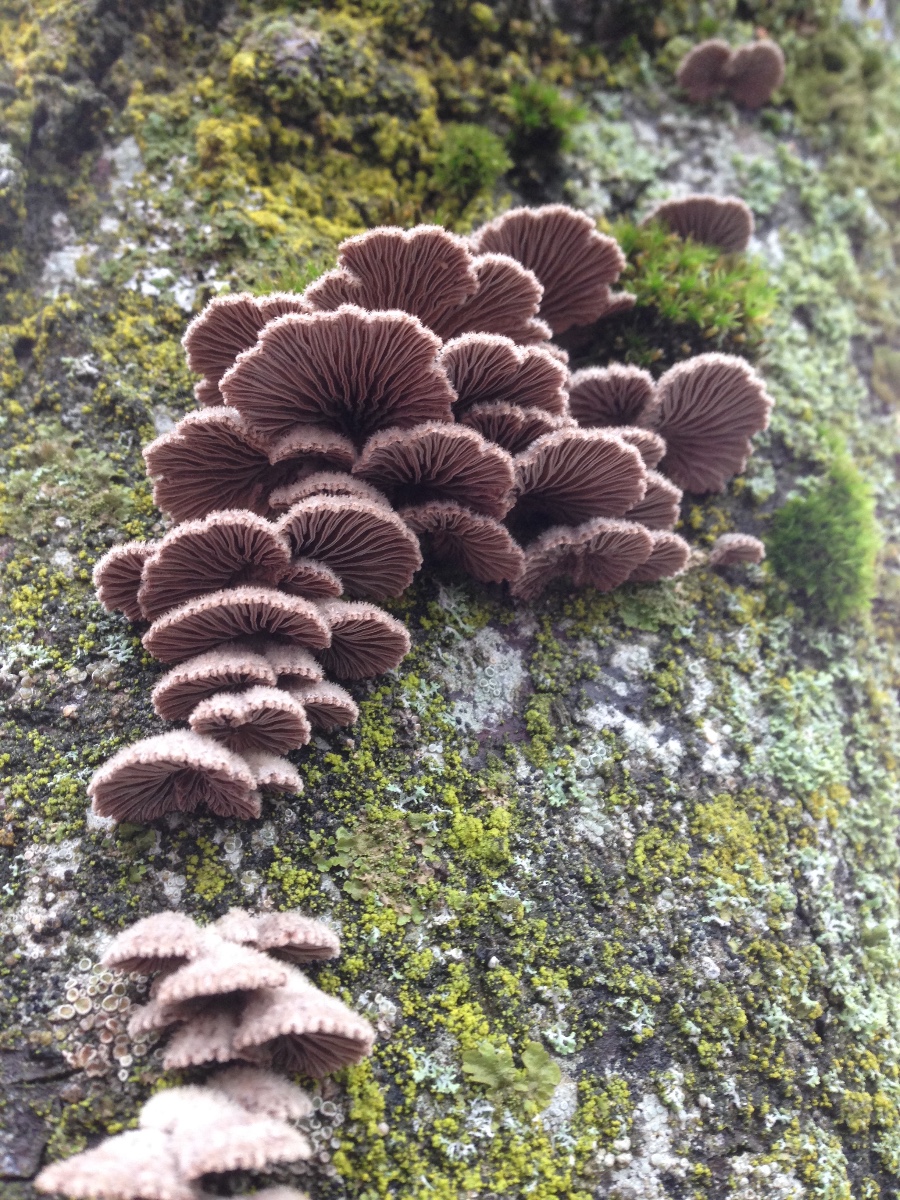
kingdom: Fungi
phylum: Basidiomycota
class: Agaricomycetes
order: Agaricales
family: Schizophyllaceae
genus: Schizophyllum
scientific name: Schizophyllum commune
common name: kløvblad
